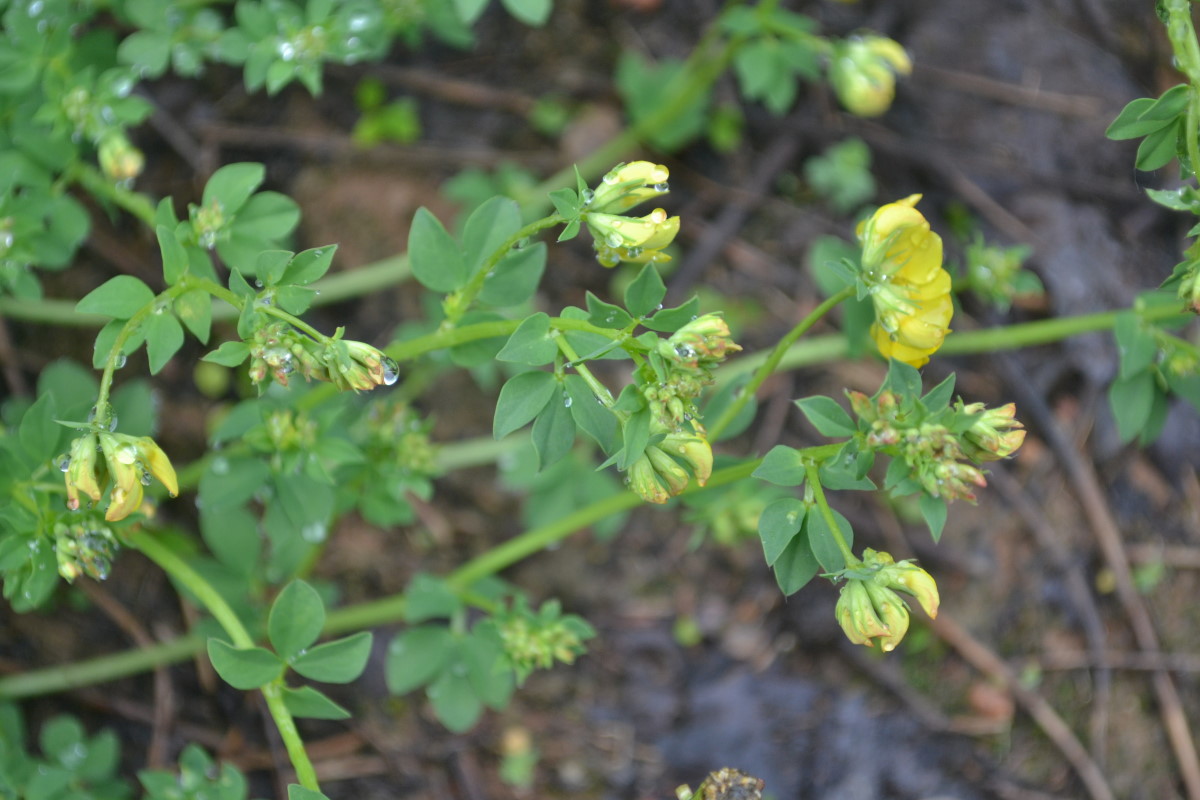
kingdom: Plantae
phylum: Tracheophyta
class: Magnoliopsida
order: Fabales
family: Fabaceae
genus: Lotus
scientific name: Lotus corniculatus
